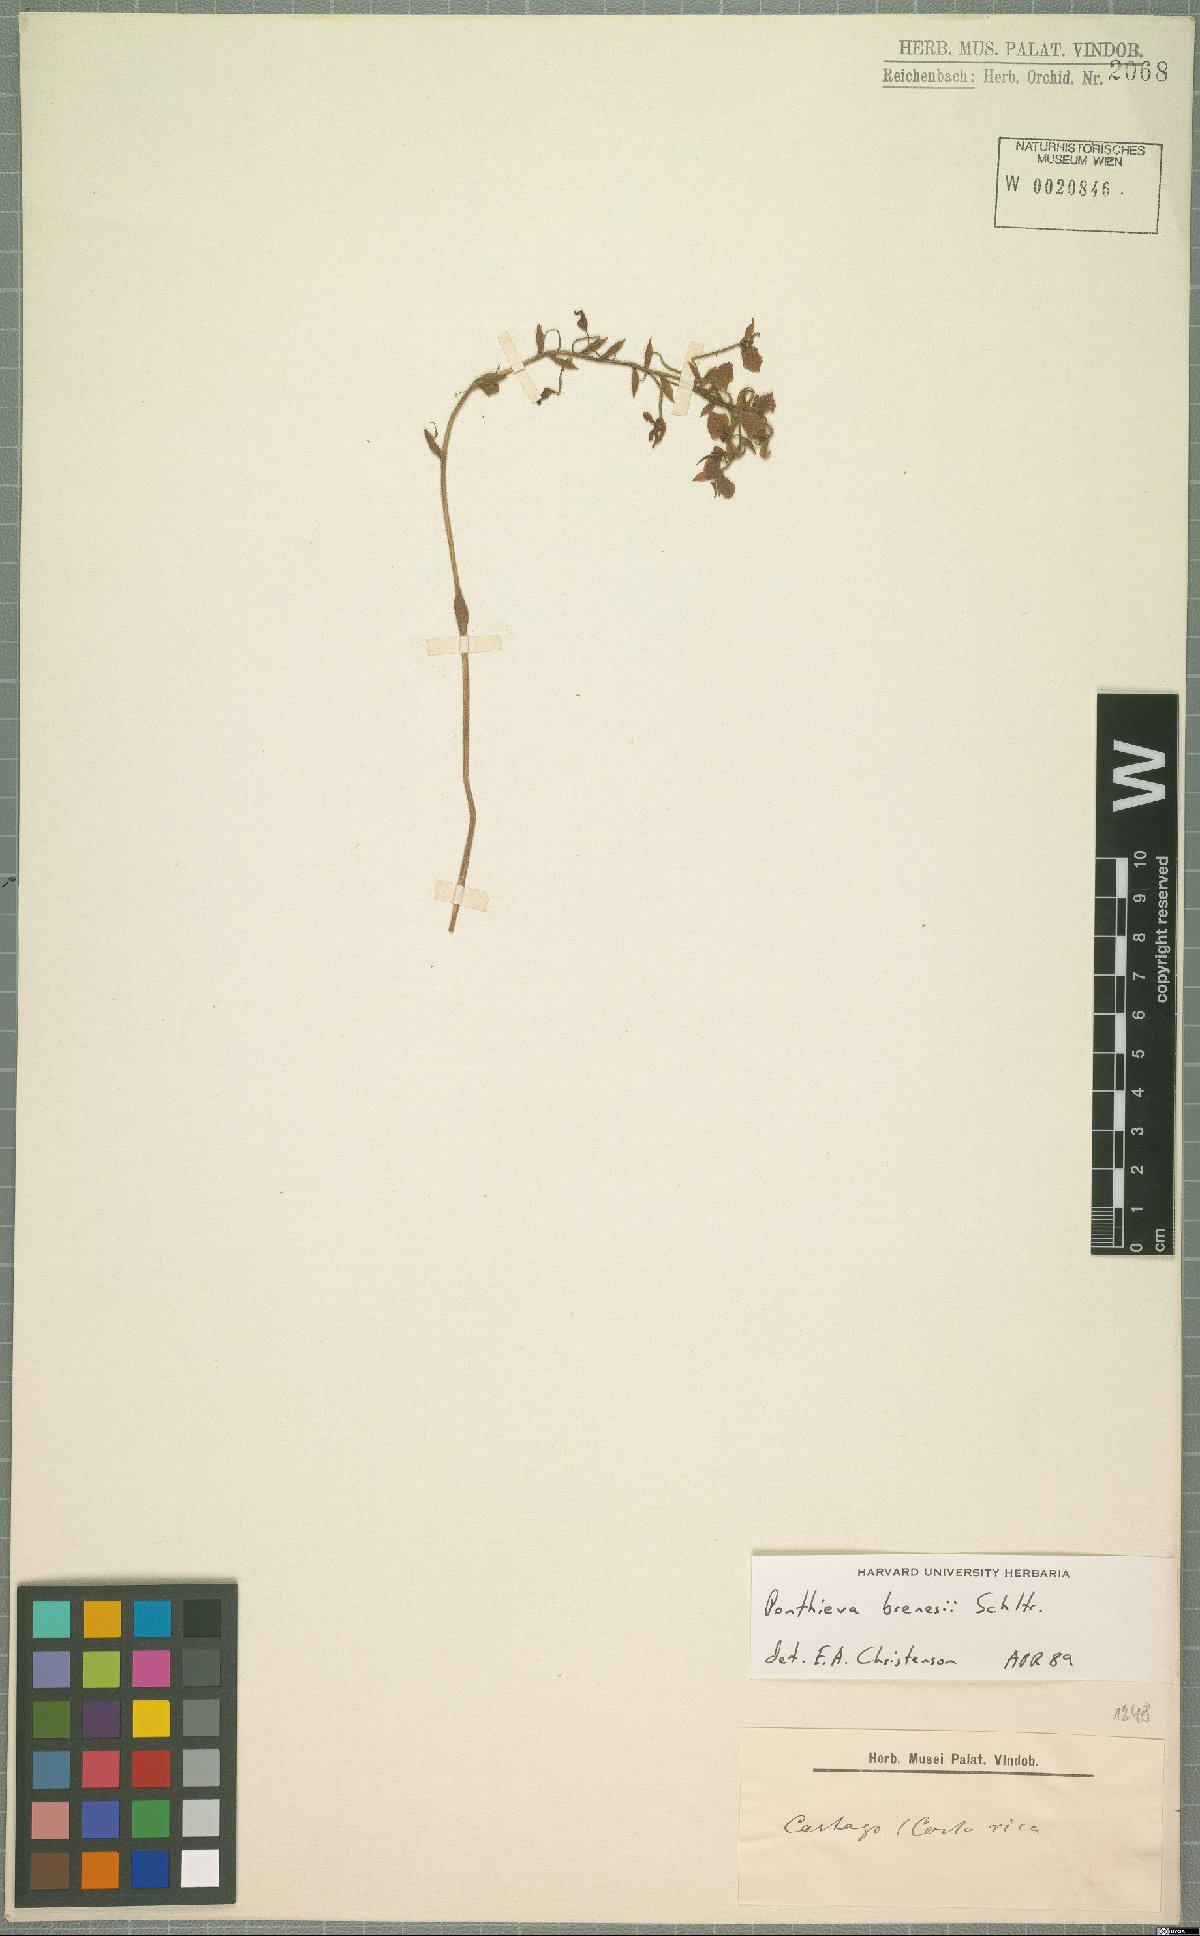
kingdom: Plantae
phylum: Tracheophyta
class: Liliopsida
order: Asparagales
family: Orchidaceae
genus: Ponthieva
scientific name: Ponthieva villosa
